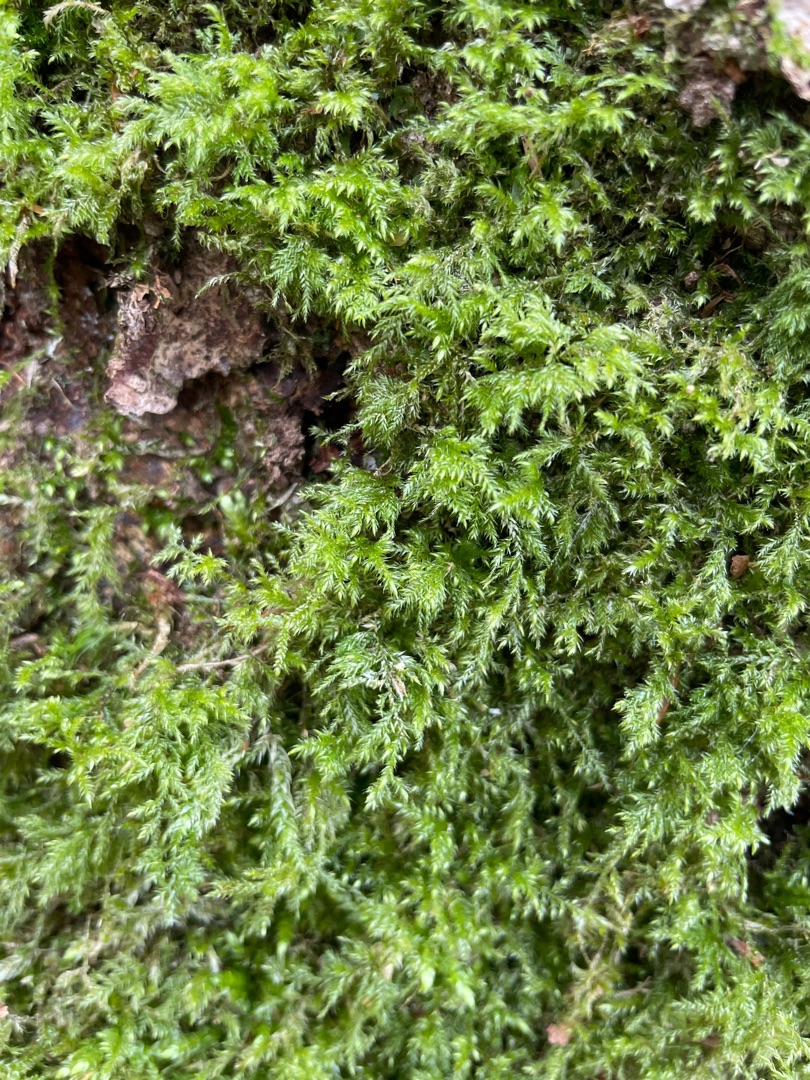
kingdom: Plantae
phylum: Bryophyta
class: Bryopsida
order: Hypnales
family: Lembophyllaceae
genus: Pseudisothecium
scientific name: Pseudisothecium myosuroides
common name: Slank stammemos
